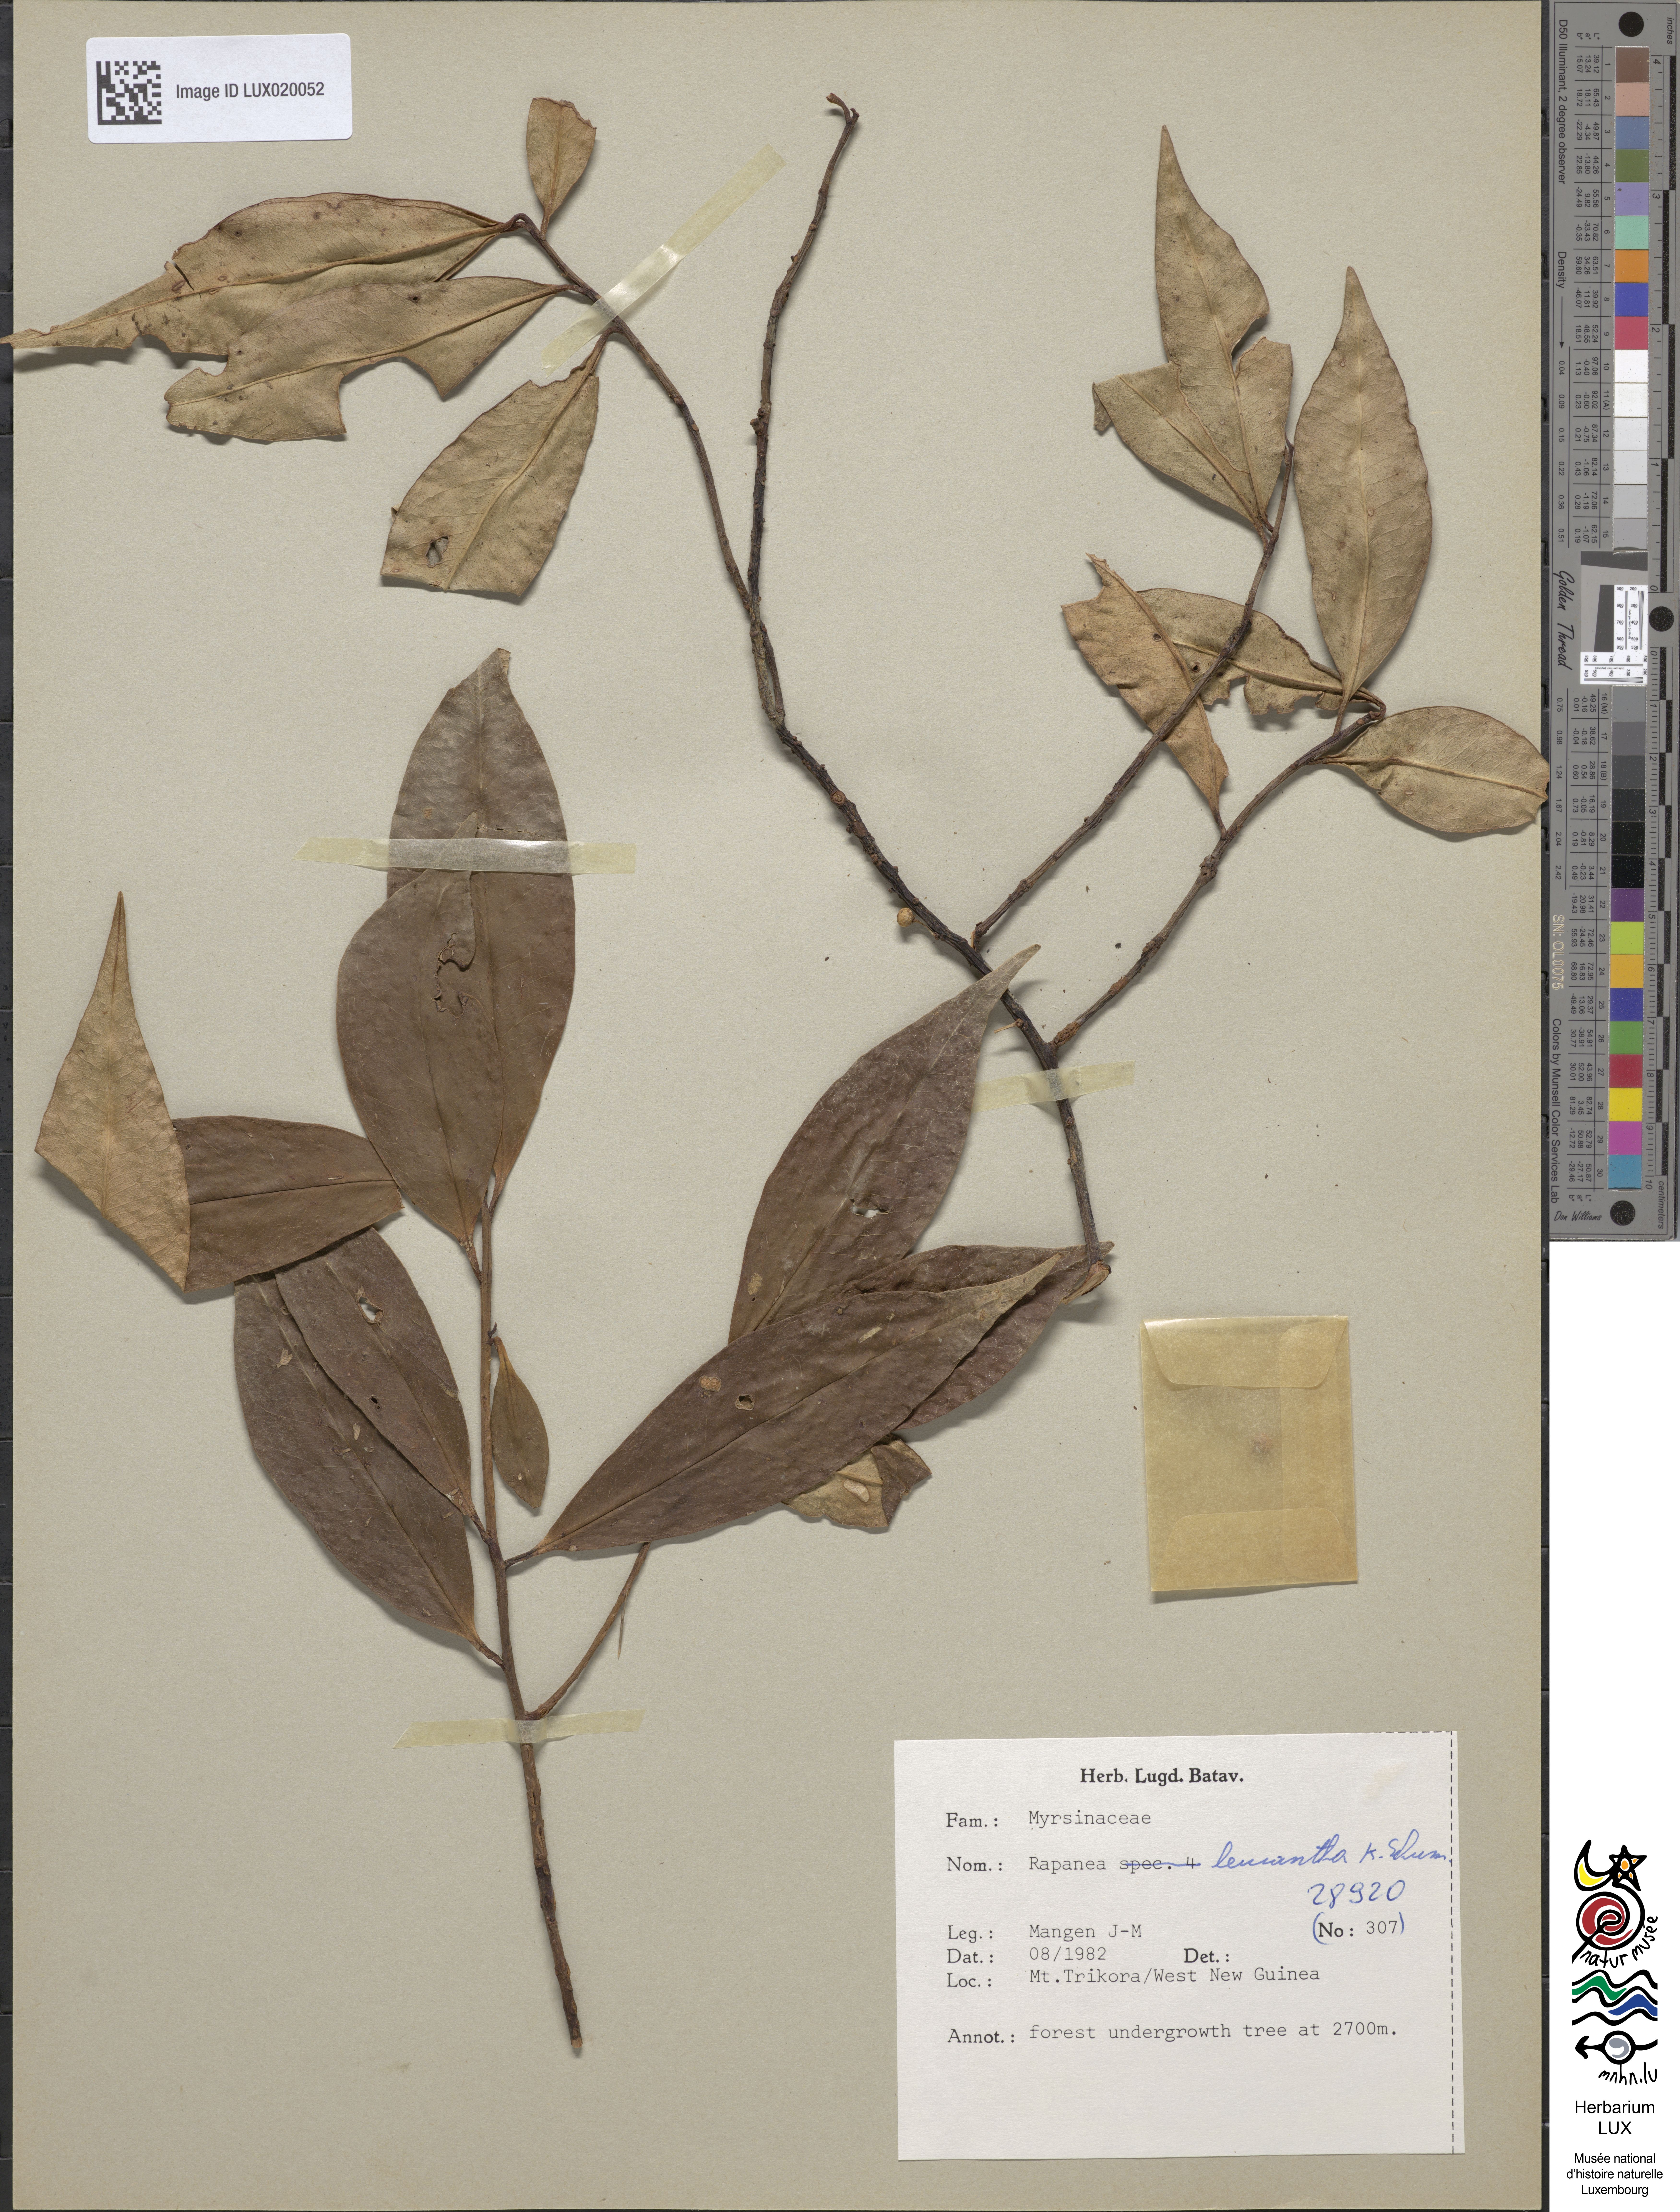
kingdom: Plantae
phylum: Tracheophyta
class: Magnoliopsida
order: Ericales
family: Primulaceae
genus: Myrsine
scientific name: Myrsine leucantha
